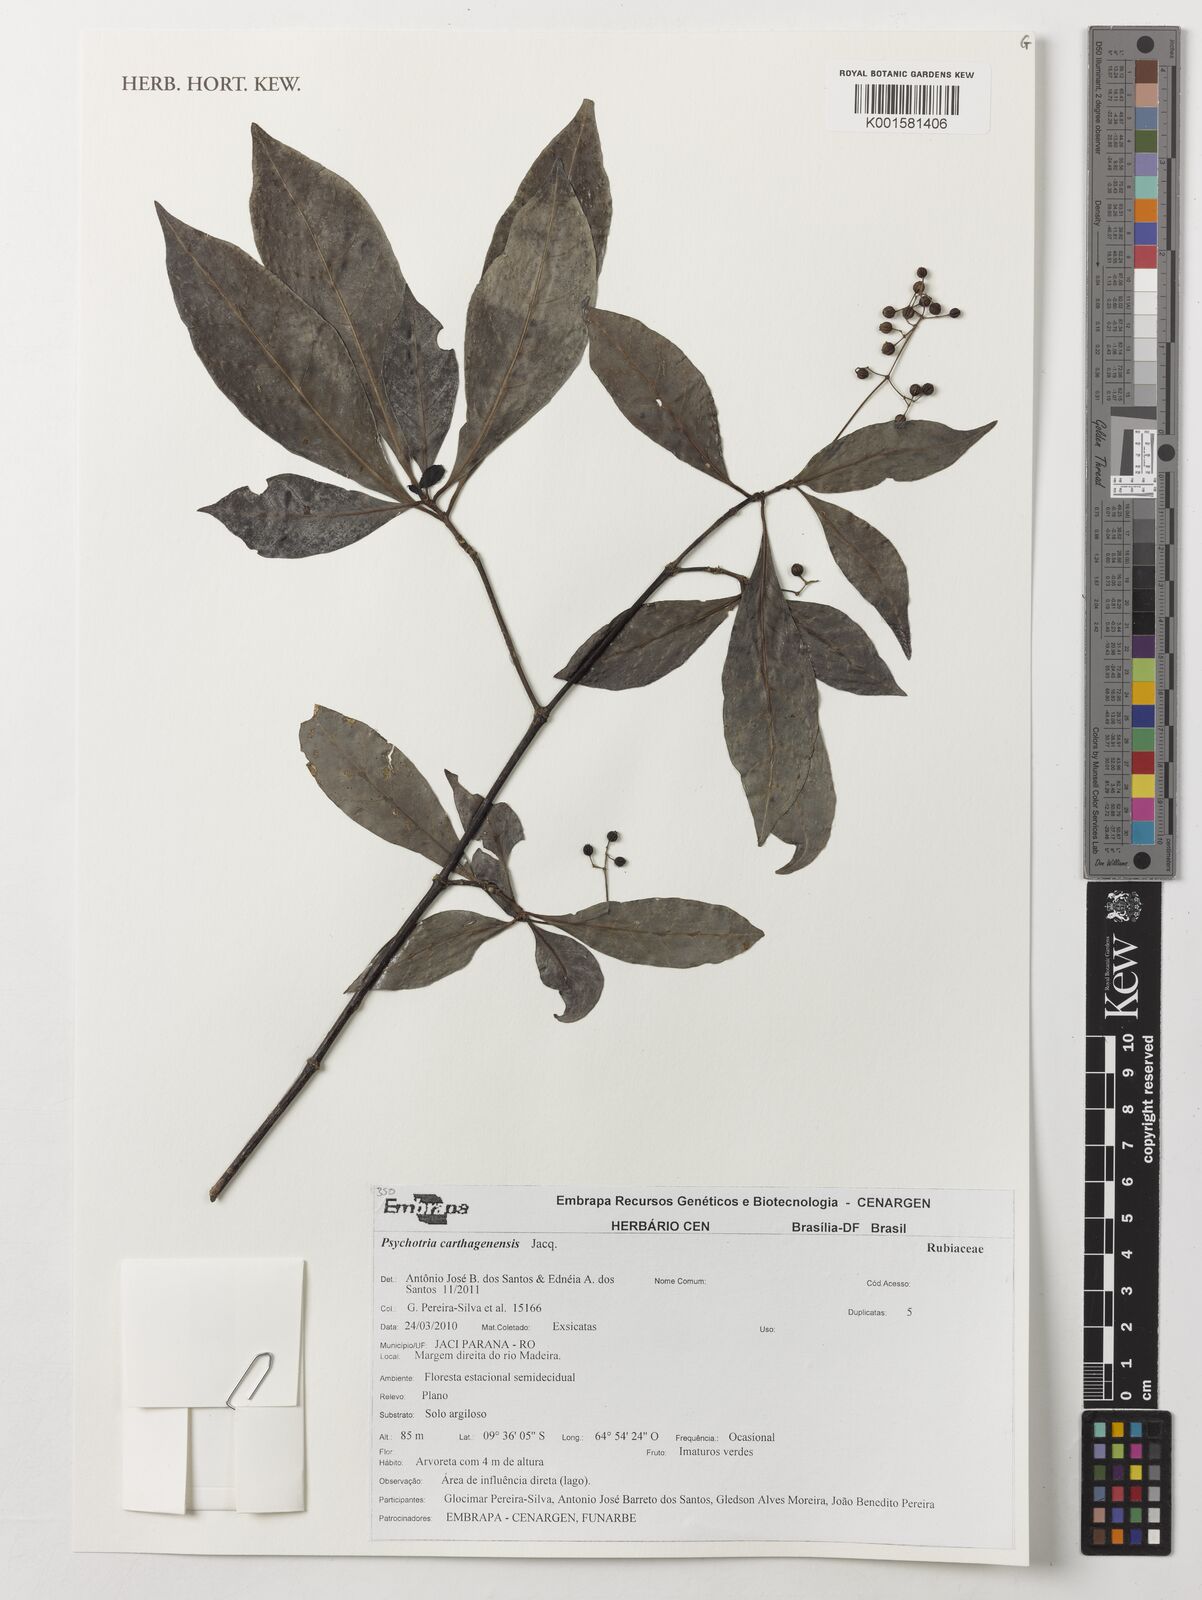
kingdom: Plantae
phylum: Tracheophyta
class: Magnoliopsida
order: Gentianales
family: Rubiaceae
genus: Psychotria
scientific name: Psychotria carthagenensis
